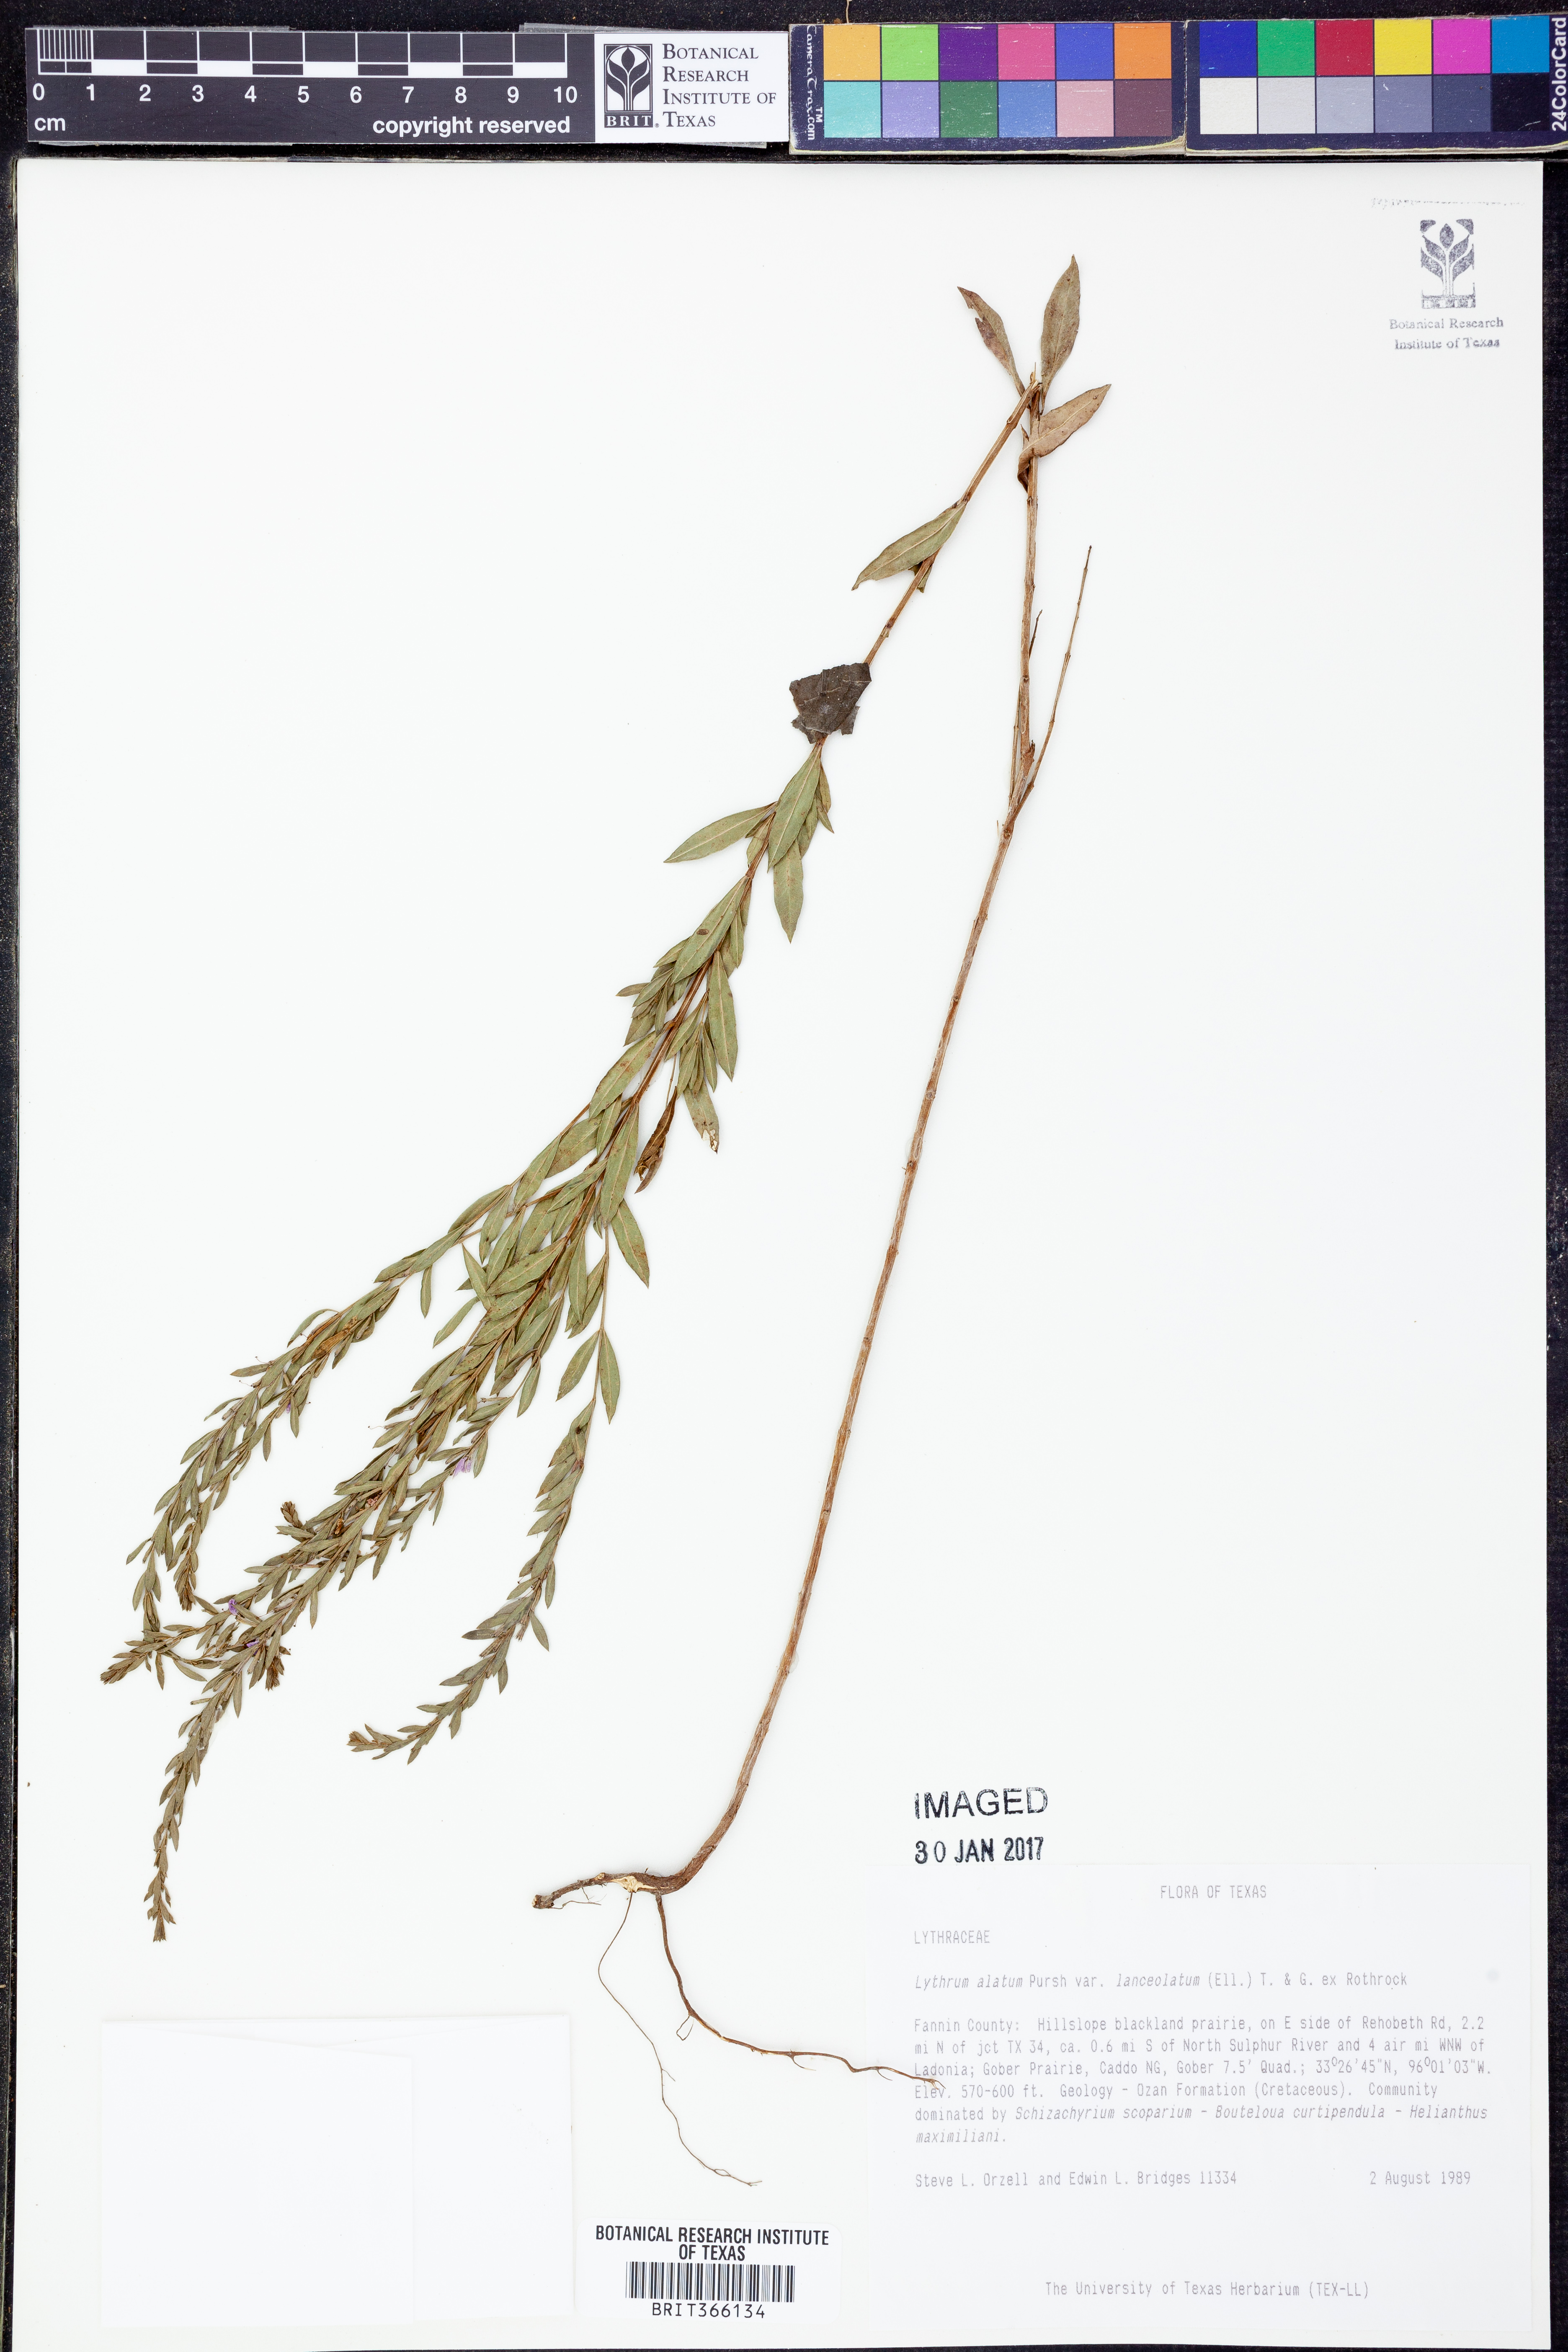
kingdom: Plantae
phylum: Tracheophyta
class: Magnoliopsida
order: Myrtales
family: Lythraceae
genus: Lythrum
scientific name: Lythrum alatum
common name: Winged loosestrife
